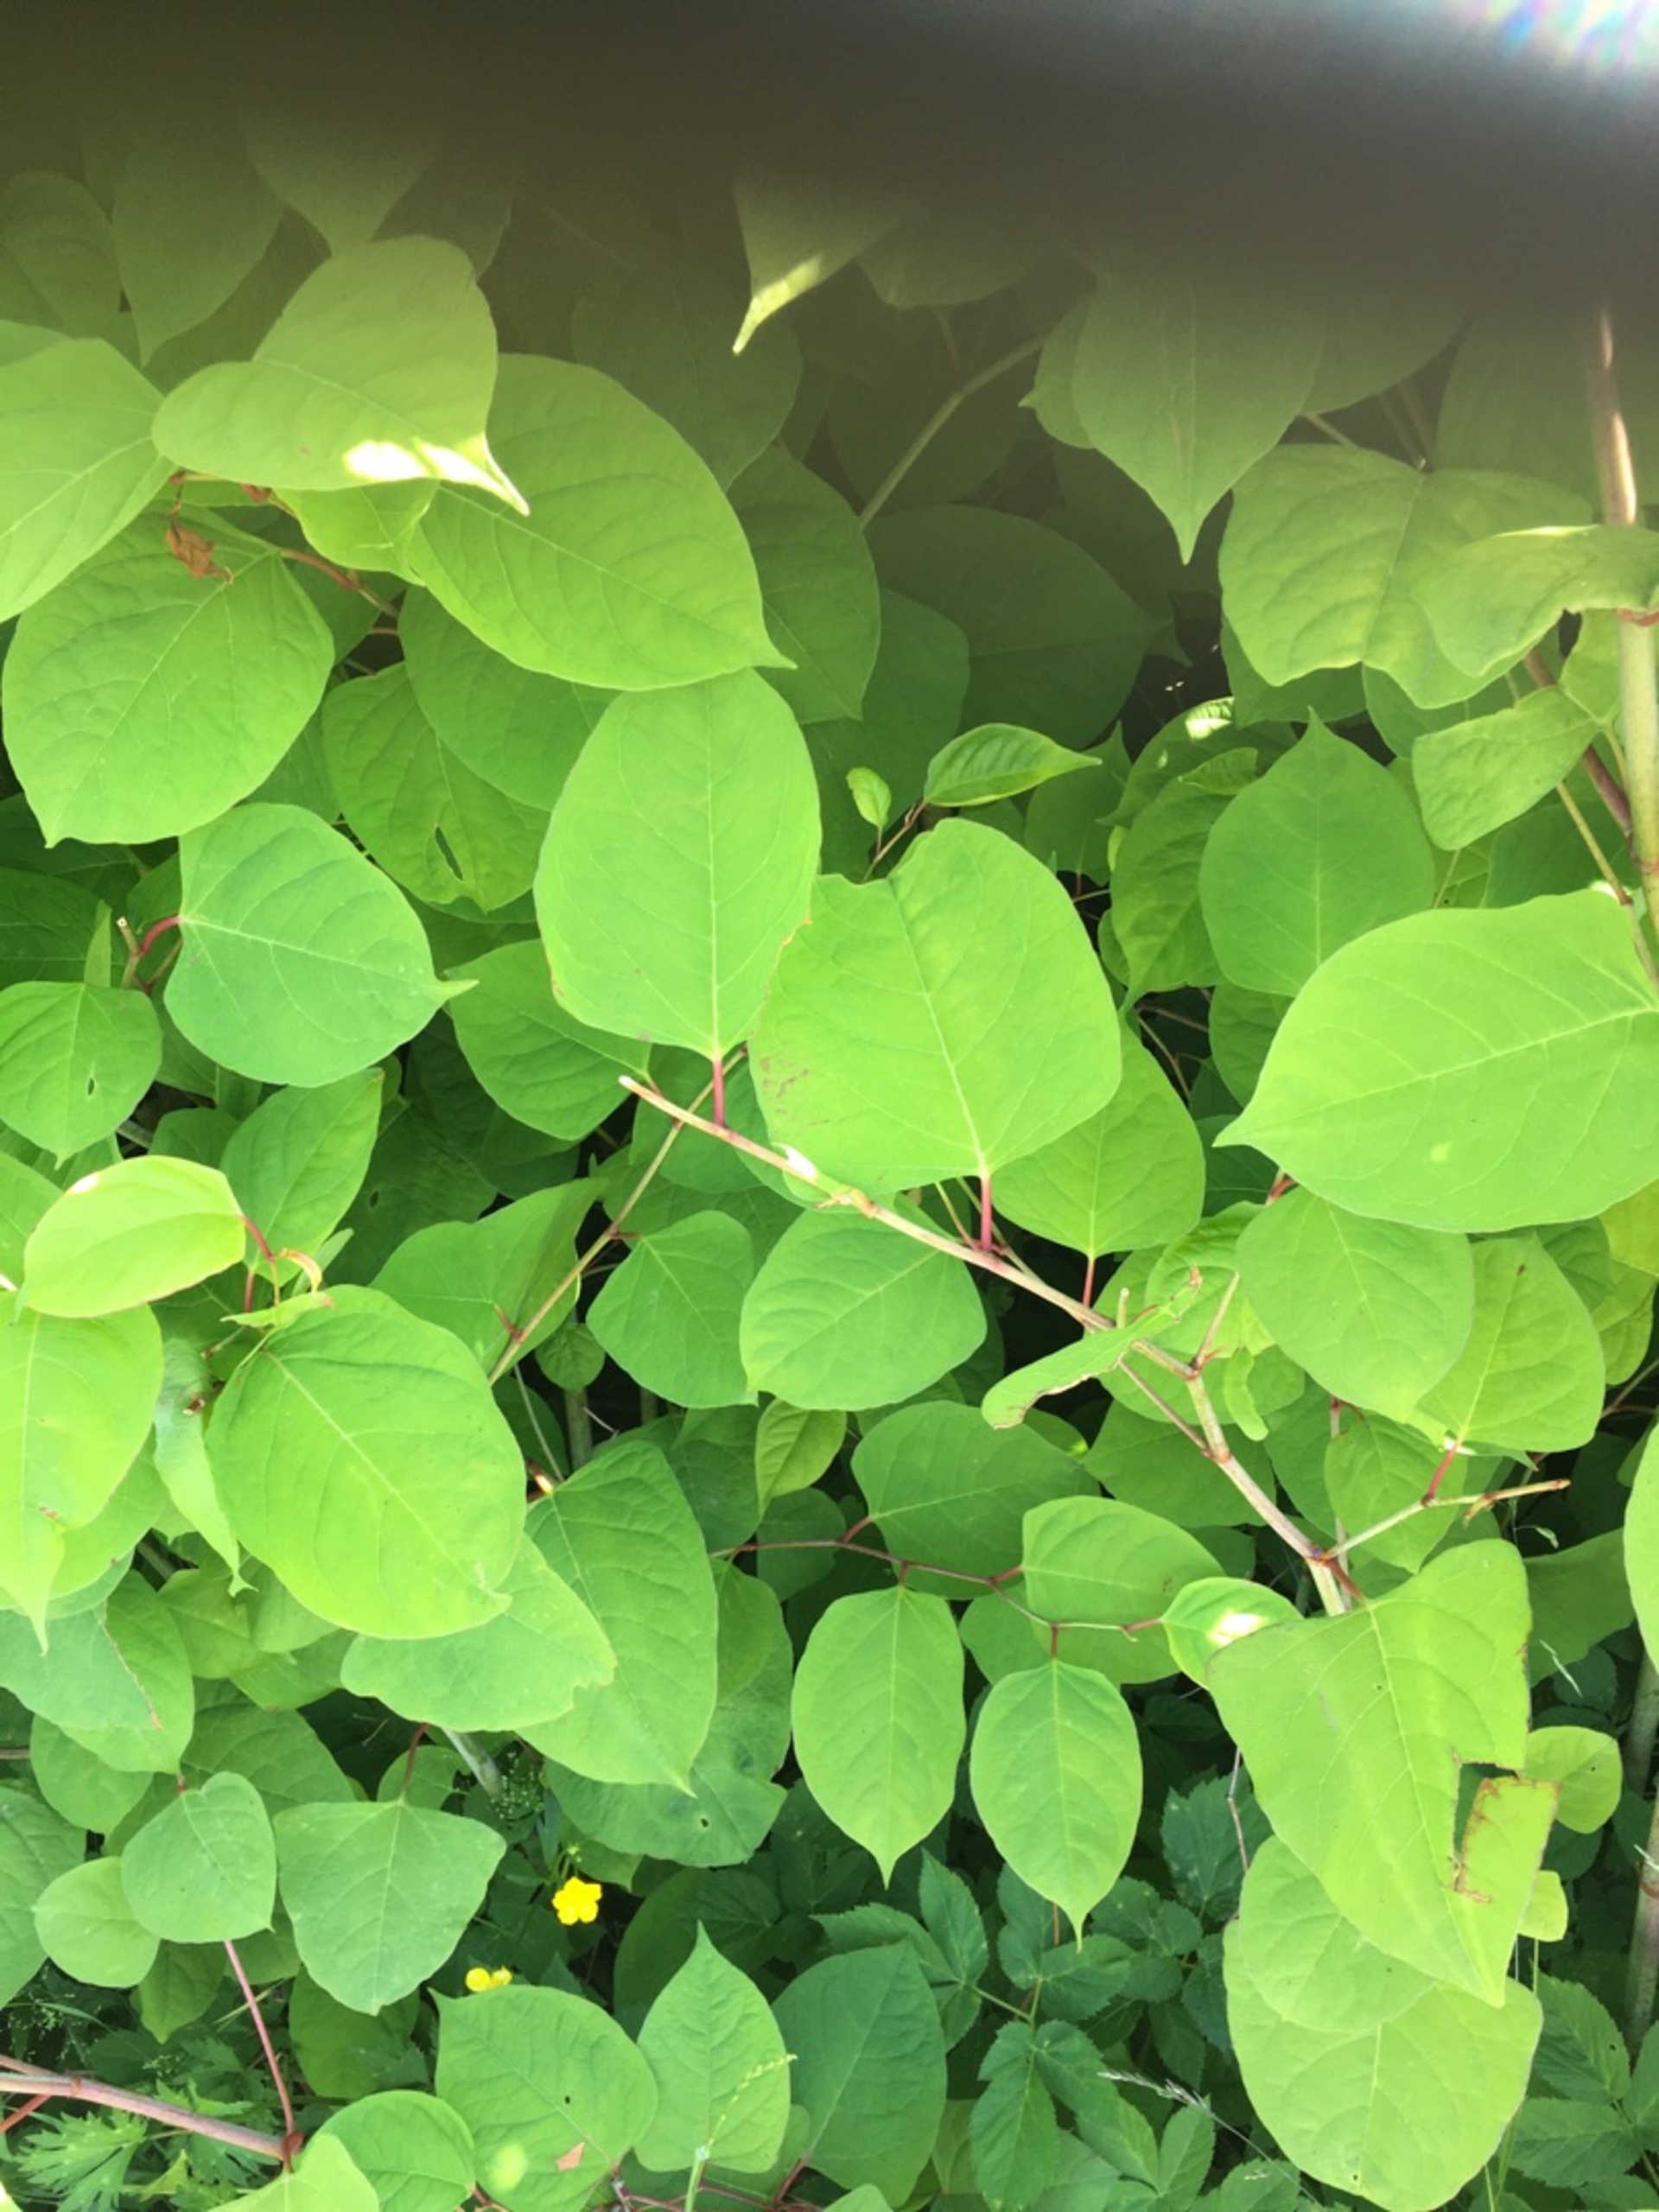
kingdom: Plantae
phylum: Tracheophyta
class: Magnoliopsida
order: Caryophyllales
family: Polygonaceae
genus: Reynoutria
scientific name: Reynoutria japonica
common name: Japan-pileurt
